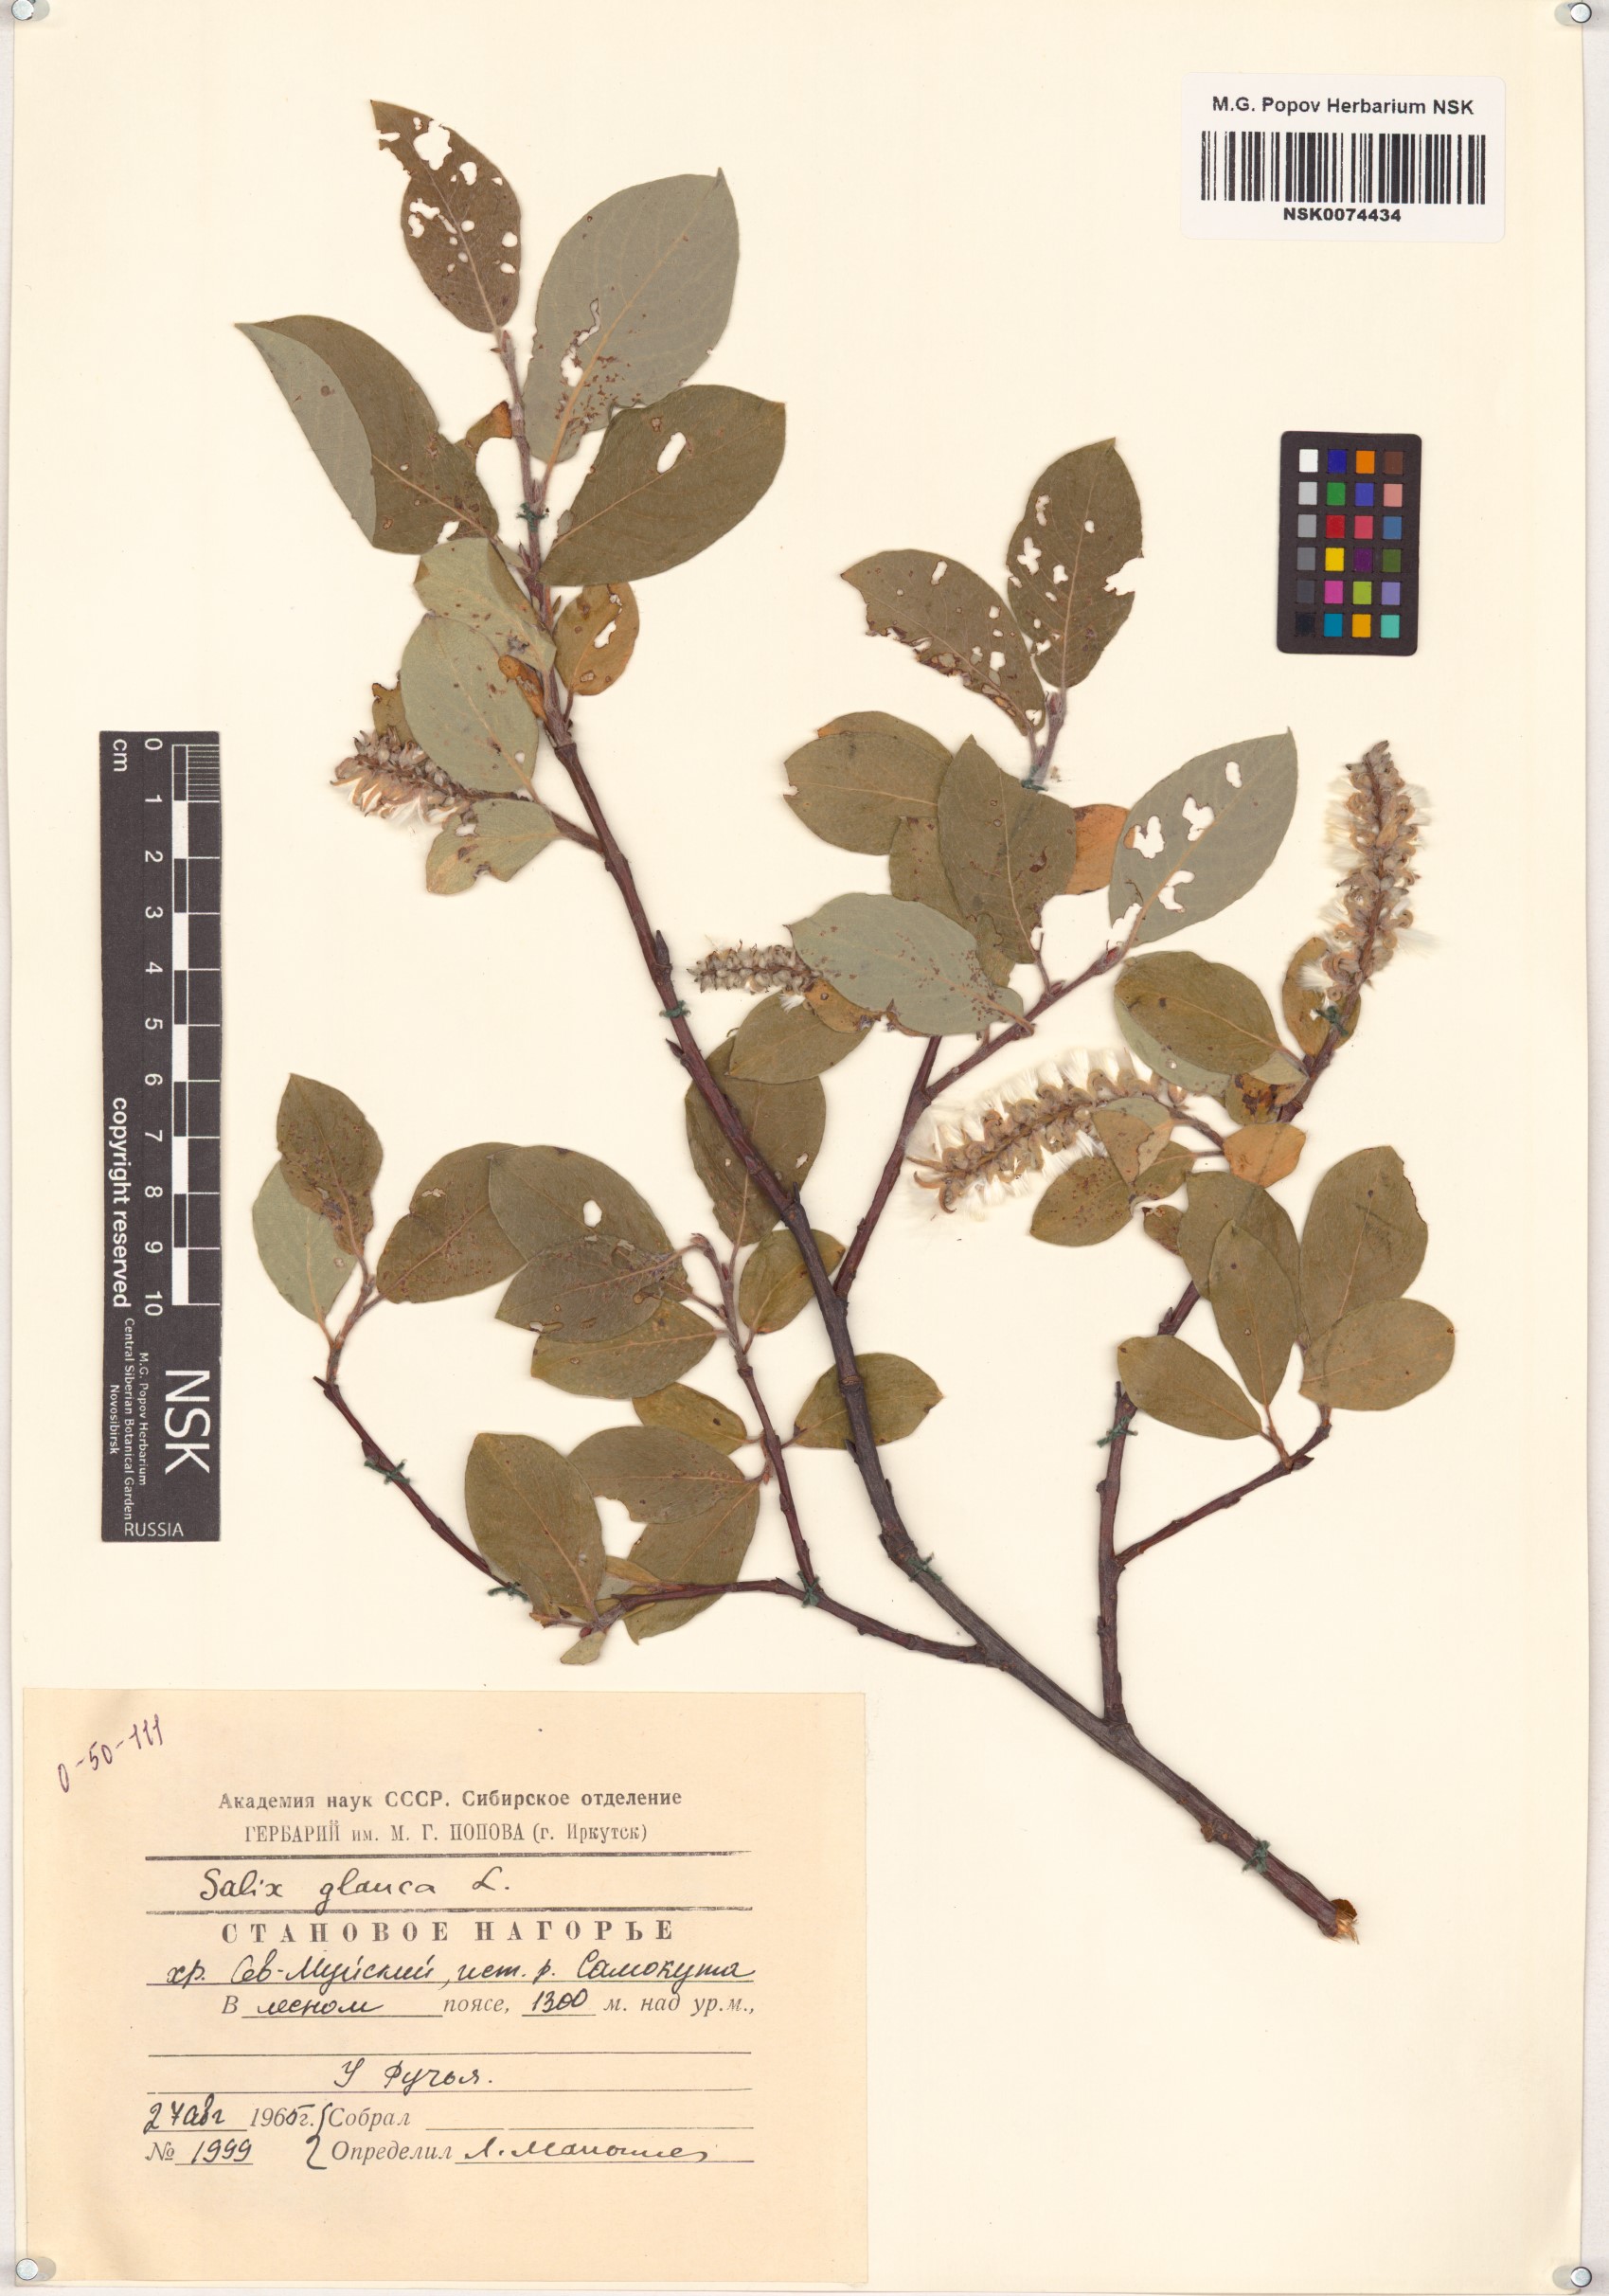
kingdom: Plantae
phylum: Tracheophyta
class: Magnoliopsida
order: Malpighiales
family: Salicaceae
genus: Salix
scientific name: Salix glauca
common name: Glaucous willow
